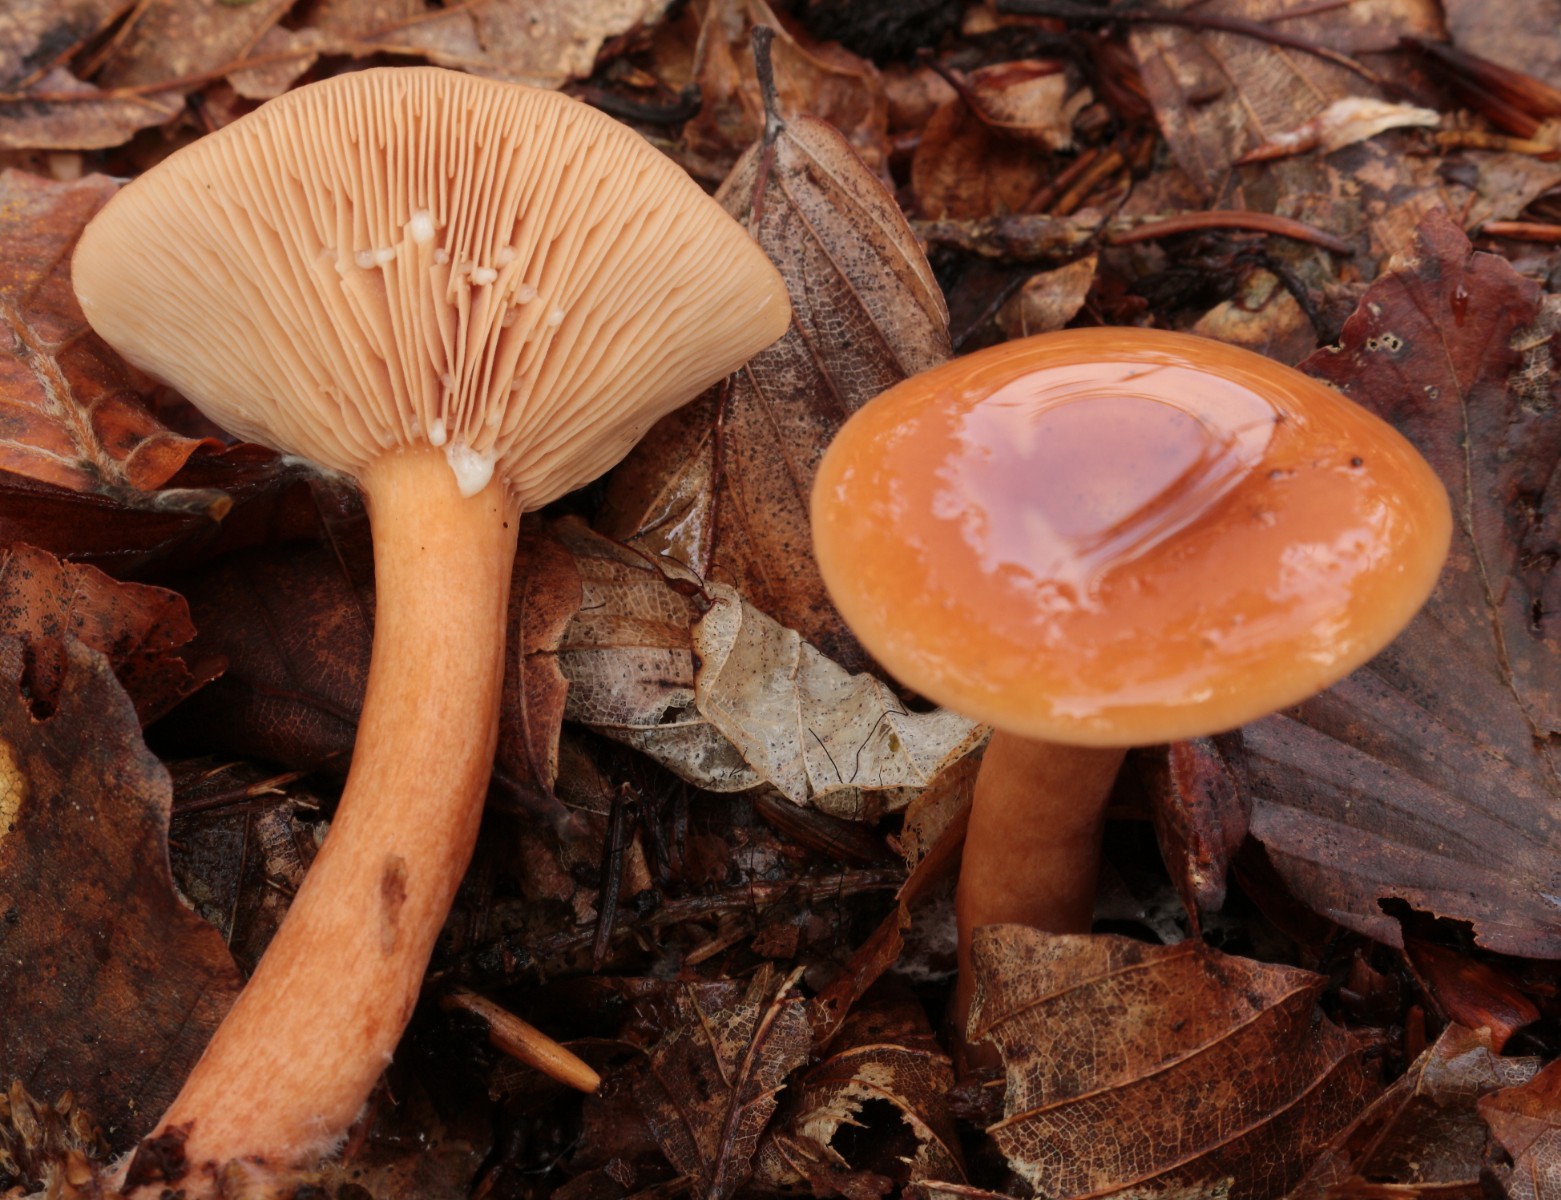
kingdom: Fungi
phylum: Basidiomycota
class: Agaricomycetes
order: Russulales
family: Russulaceae
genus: Lactarius
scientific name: Lactarius aurantiacus
